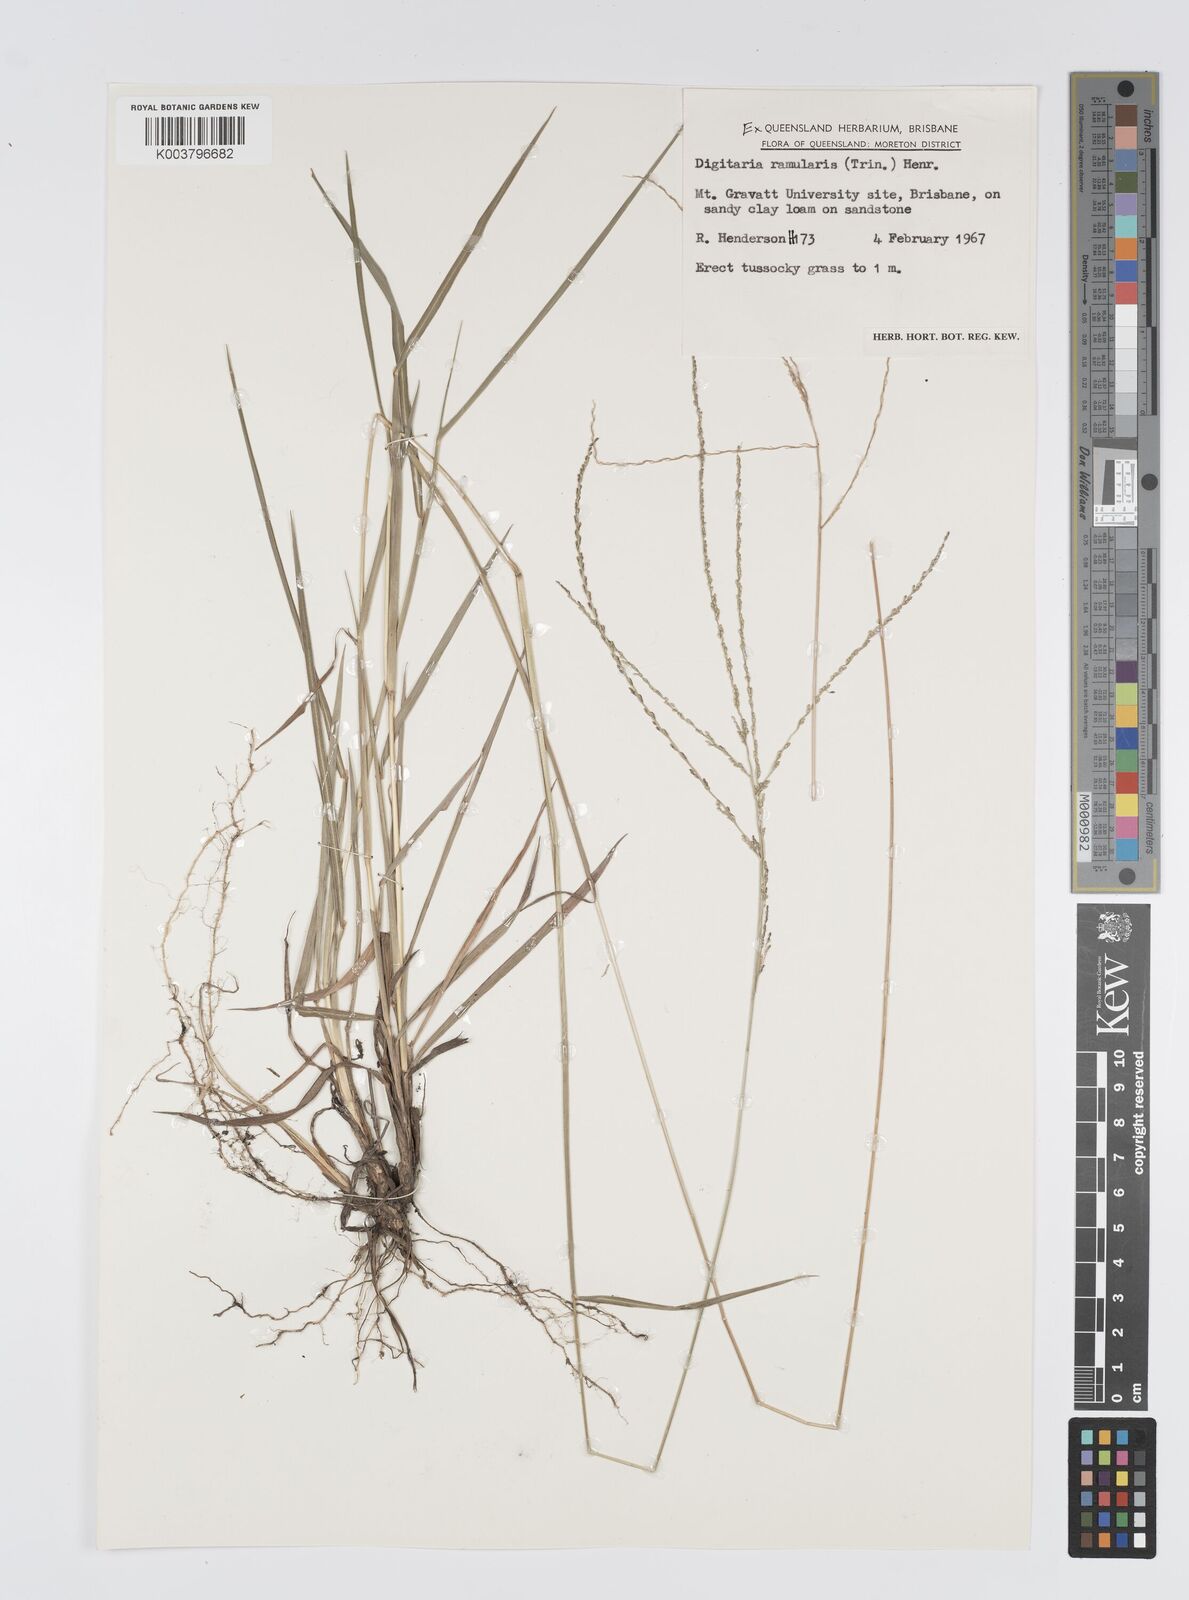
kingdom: Plantae
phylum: Tracheophyta
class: Liliopsida
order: Poales
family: Poaceae
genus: Digitaria
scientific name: Digitaria ramularis
